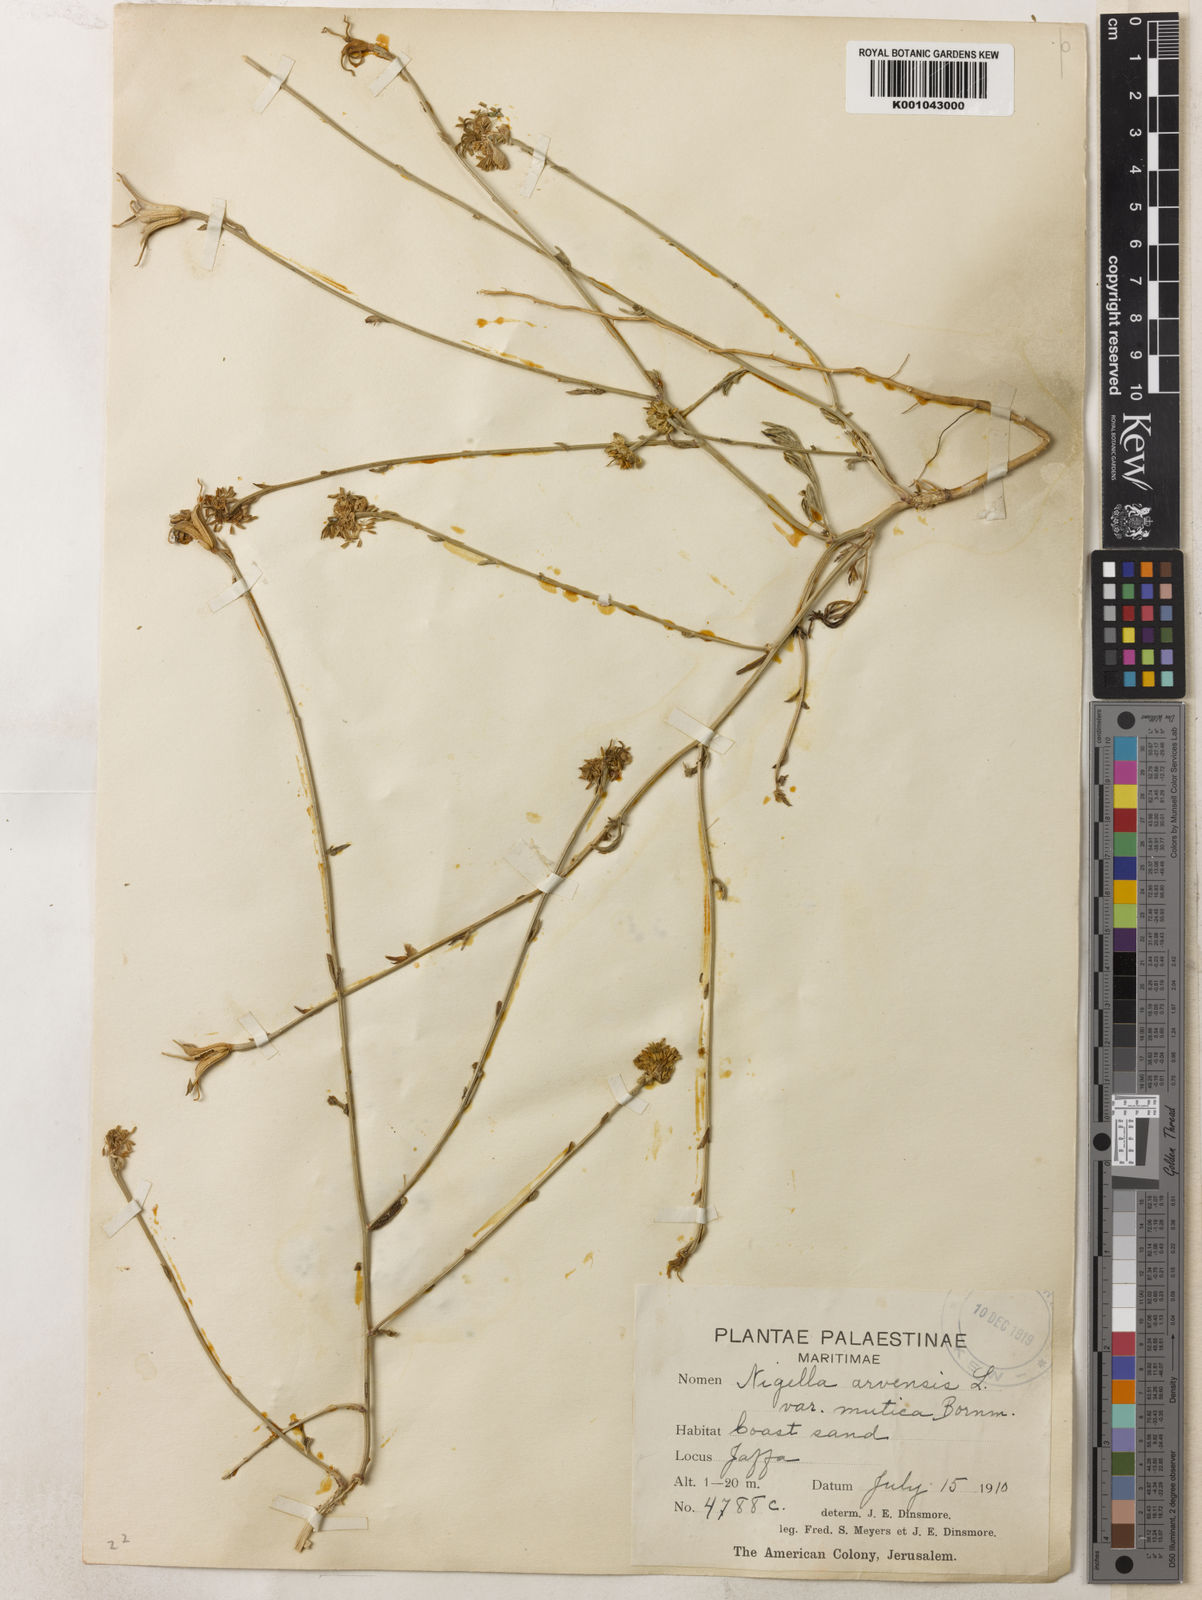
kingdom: Plantae
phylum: Tracheophyta
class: Magnoliopsida
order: Ranunculales
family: Ranunculaceae
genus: Nigella
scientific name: Nigella arvensis
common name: Wild fennel-flower
